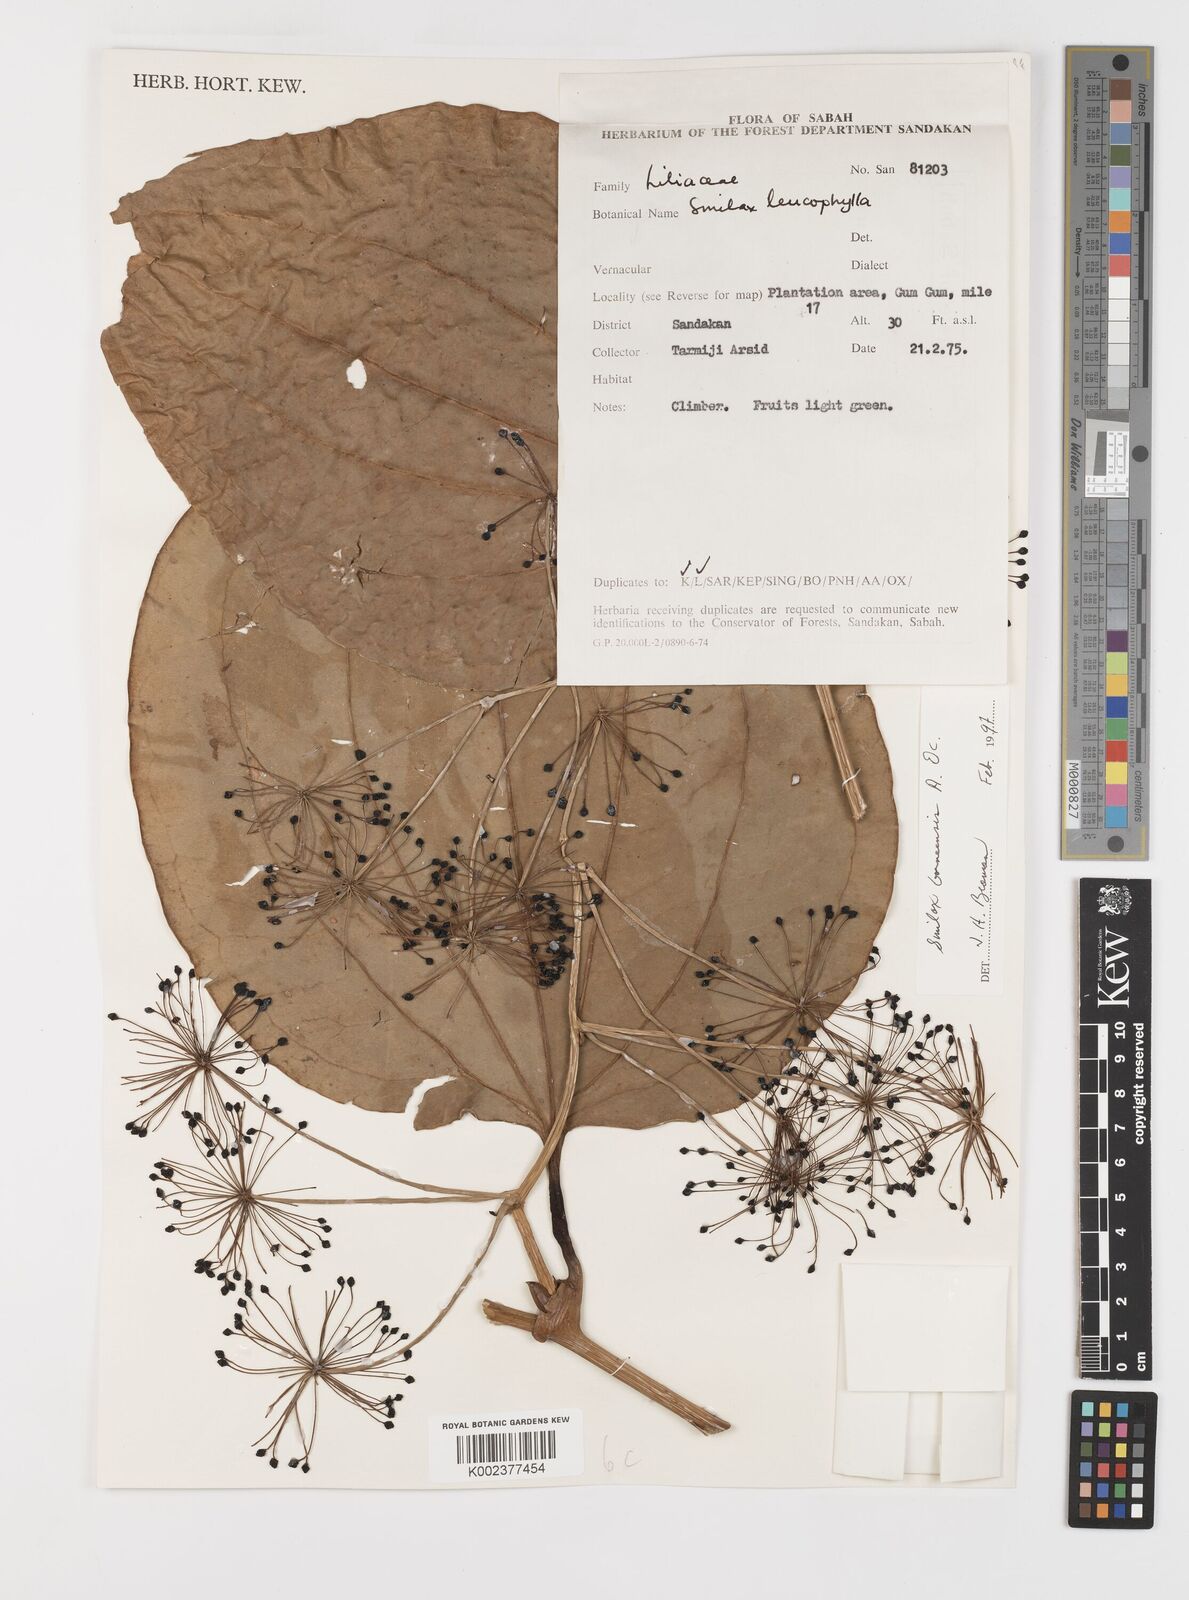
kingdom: Plantae
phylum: Tracheophyta
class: Liliopsida
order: Liliales
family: Smilacaceae
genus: Smilax
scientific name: Smilax borneensis
